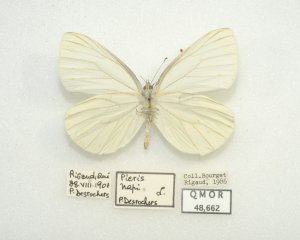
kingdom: Animalia
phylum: Arthropoda
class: Insecta
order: Lepidoptera
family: Pieridae
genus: Pieris
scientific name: Pieris oleracea
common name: Mustard White
